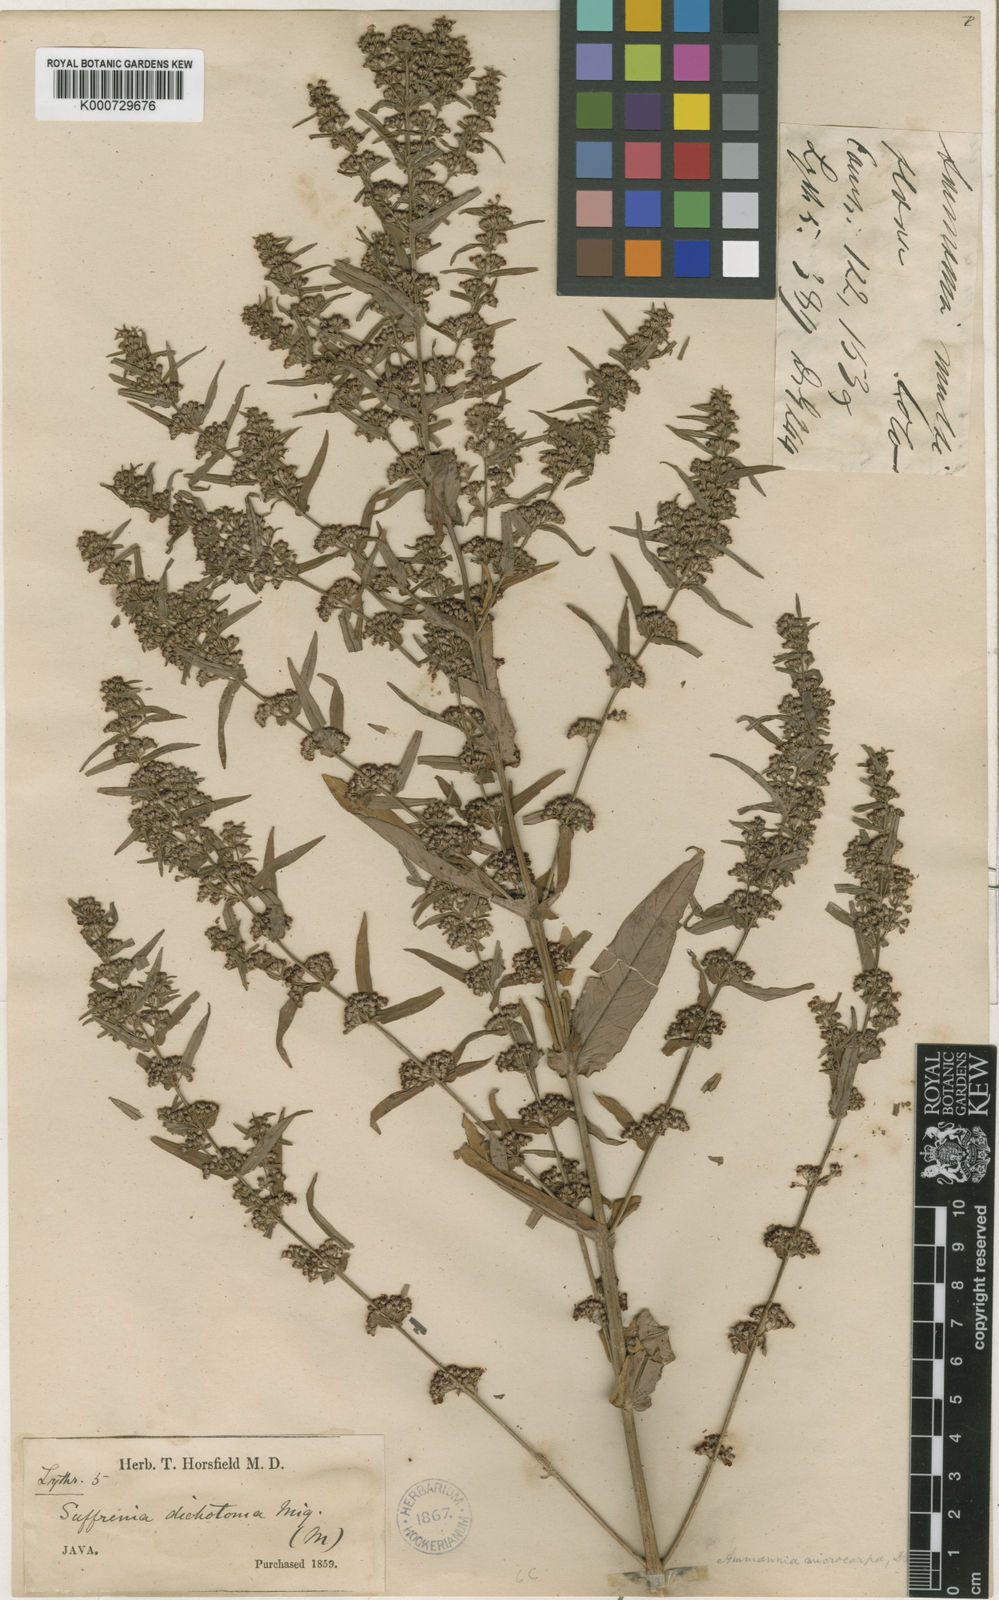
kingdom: Plantae
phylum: Tracheophyta
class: Magnoliopsida
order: Myrtales
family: Lythraceae
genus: Ammannia
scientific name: Ammannia auriculata
